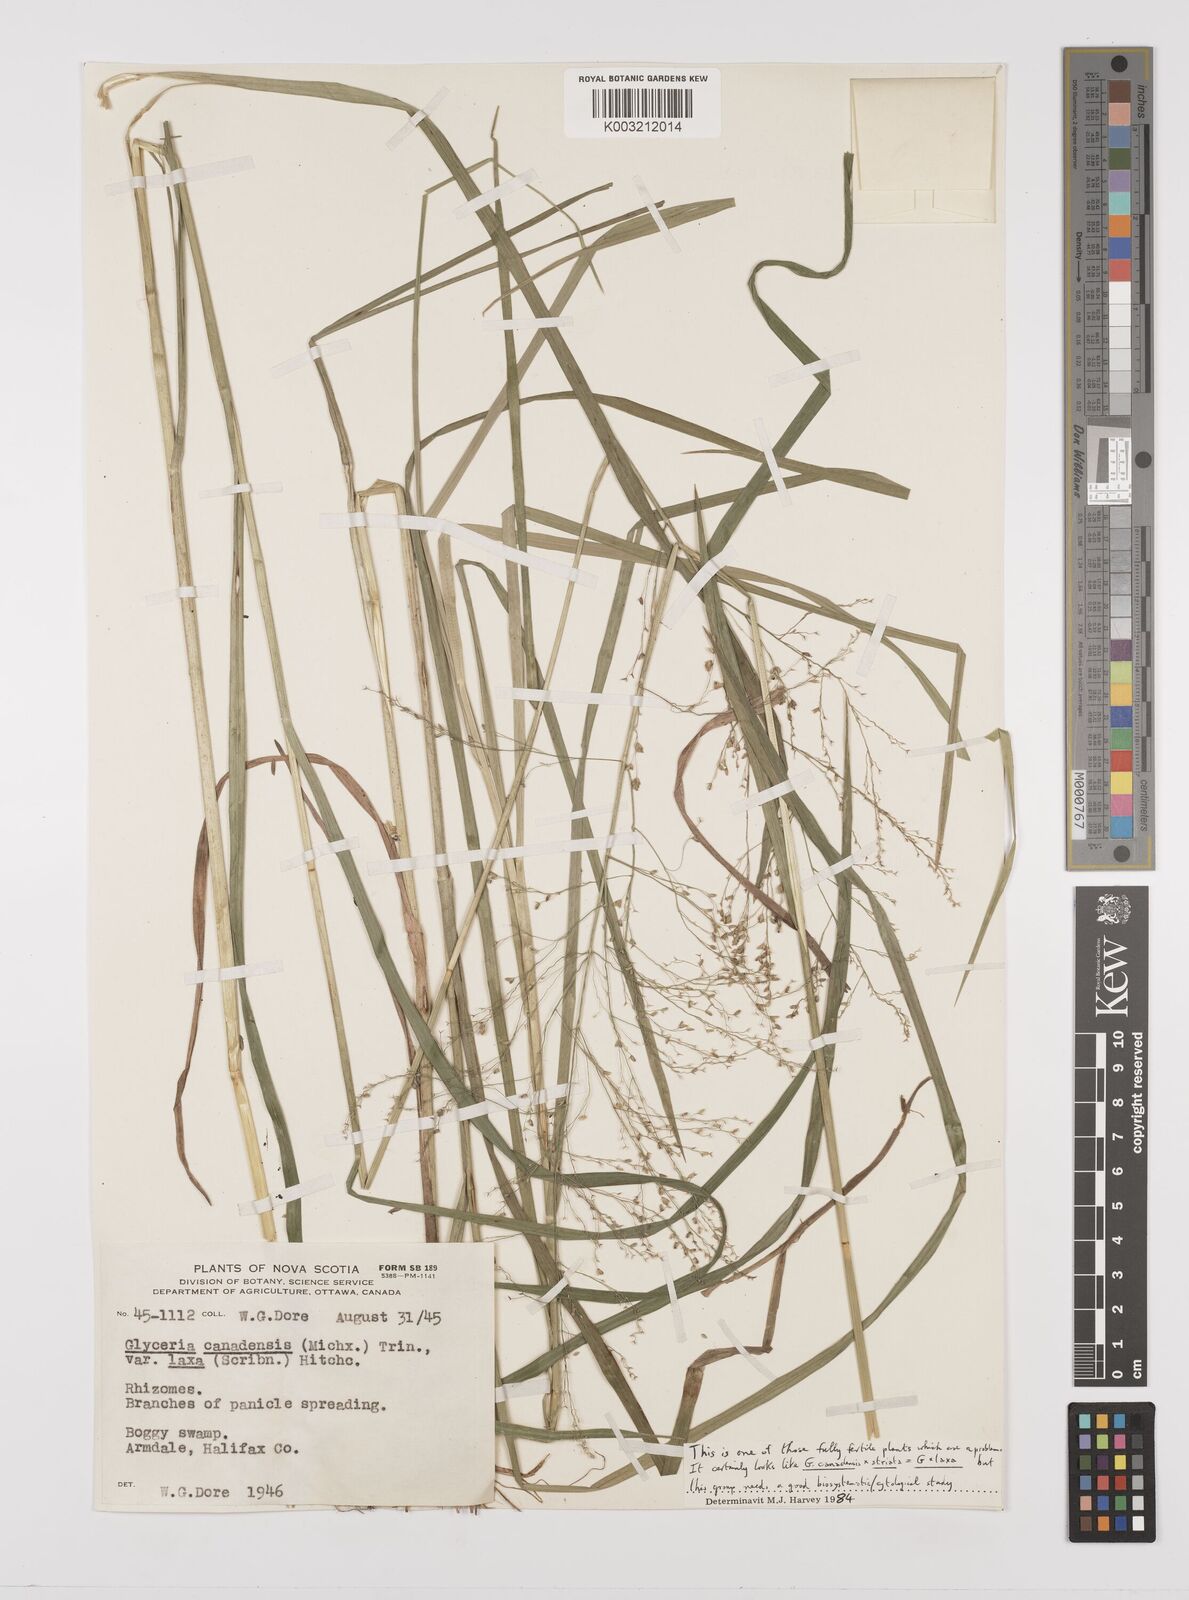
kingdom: Plantae
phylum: Tracheophyta
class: Liliopsida
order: Poales
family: Poaceae
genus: Glyceria
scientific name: Glyceria canadensis
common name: Canada mannagrass
